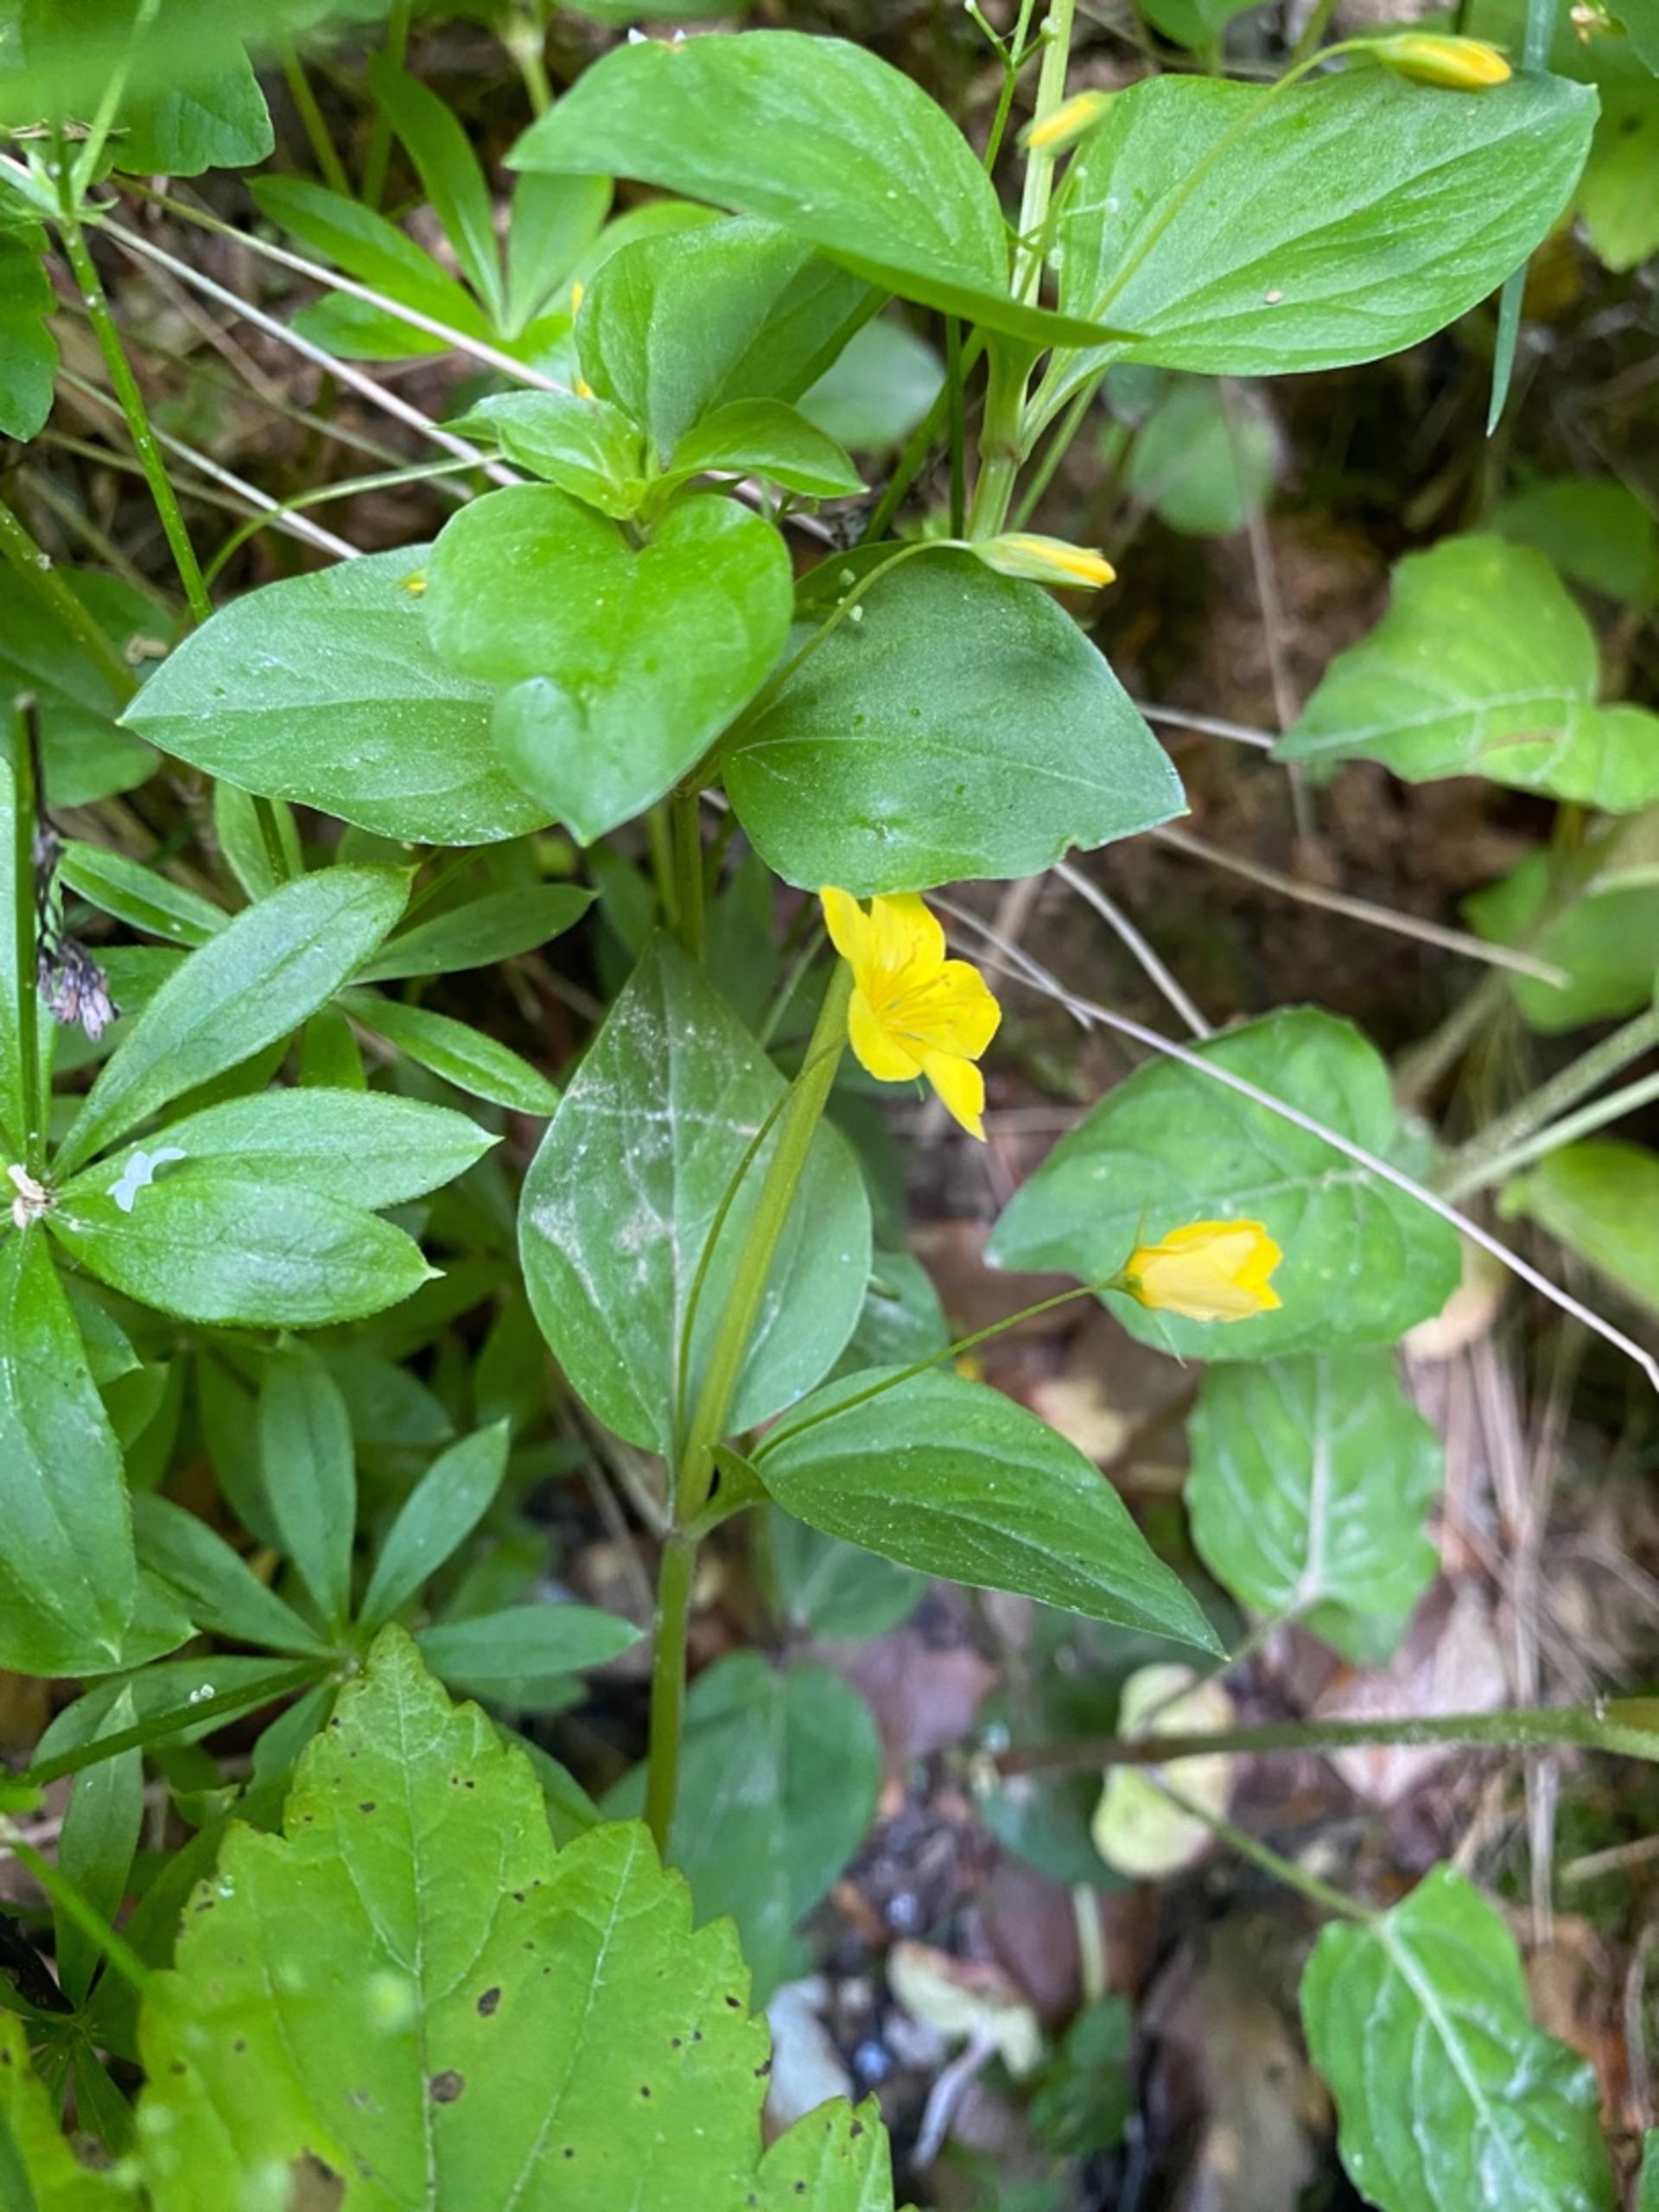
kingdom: Plantae
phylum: Tracheophyta
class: Magnoliopsida
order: Ericales
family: Primulaceae
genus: Lysimachia
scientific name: Lysimachia nemorum
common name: Lund-fredløs
